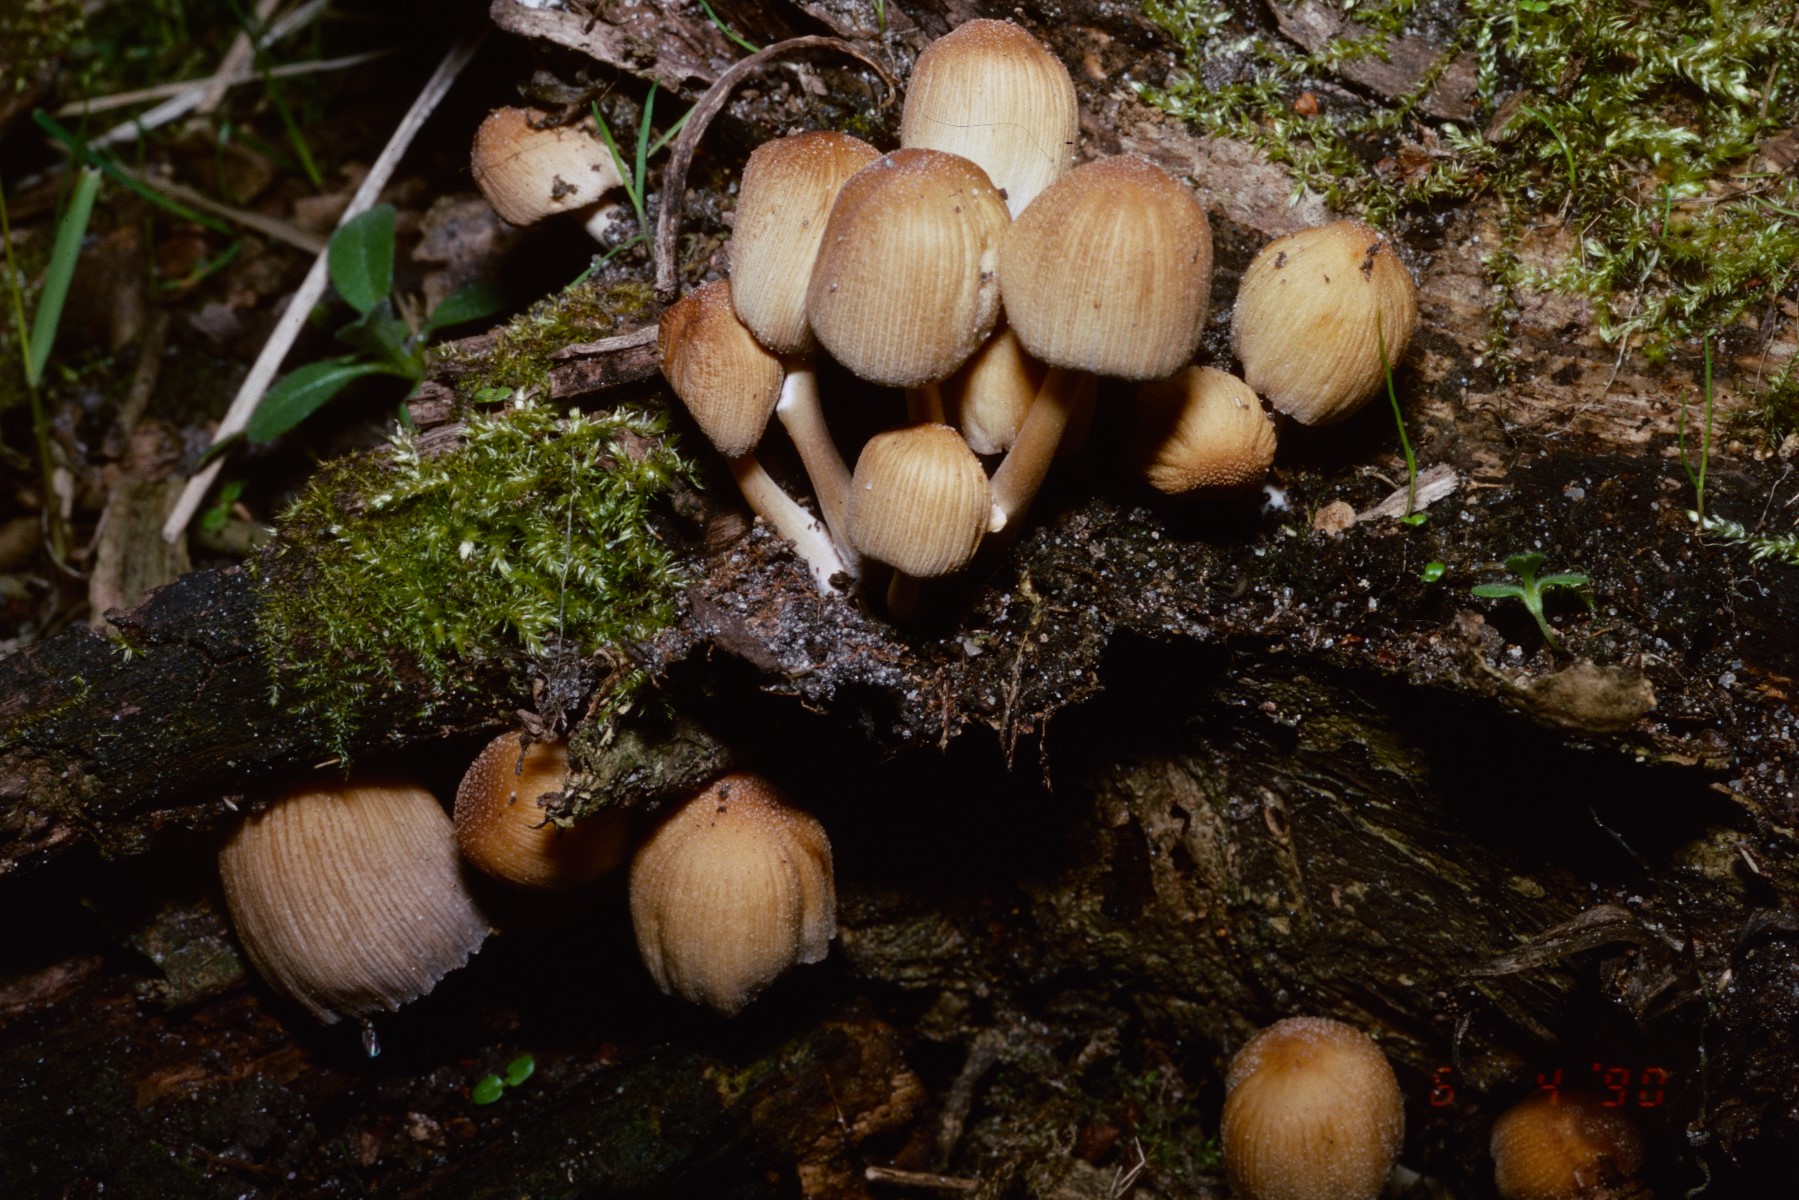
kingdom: Fungi
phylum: Basidiomycota
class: Agaricomycetes
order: Agaricales
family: Psathyrellaceae
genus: Coprinellus
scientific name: Coprinellus micaceus
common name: glimmer-blækhat
